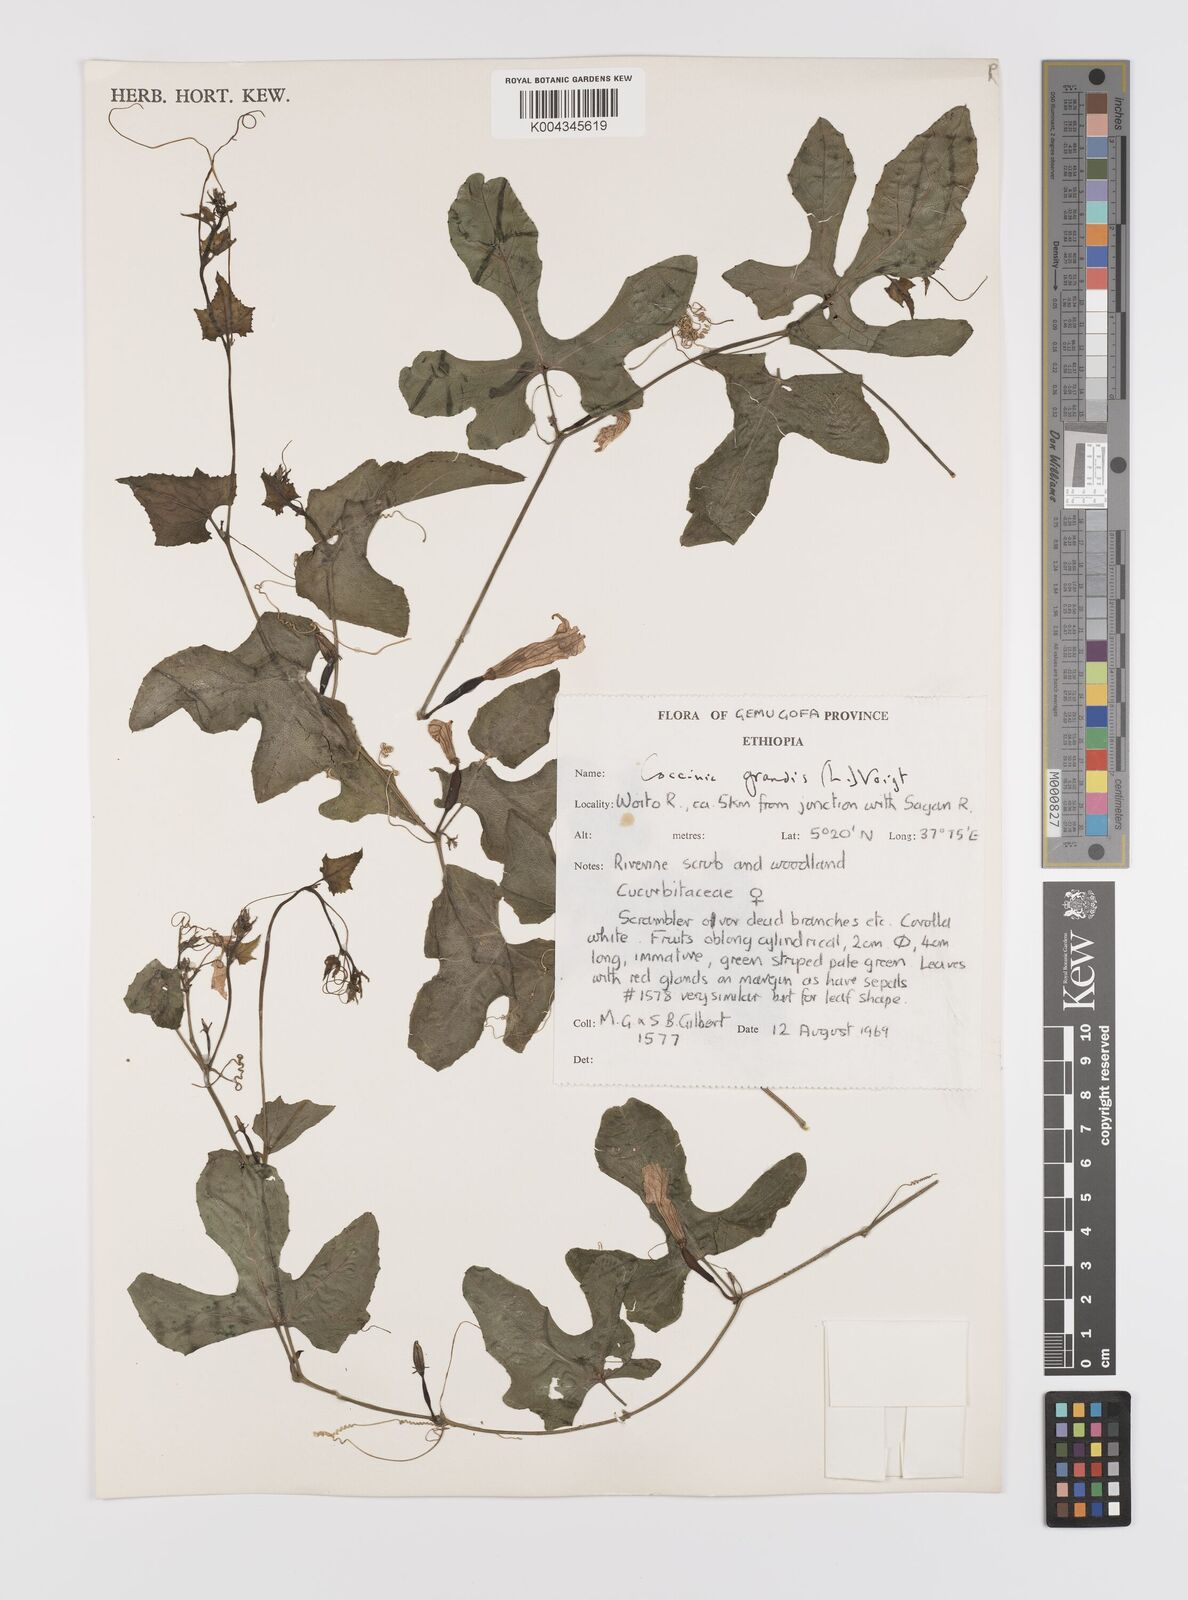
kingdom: Plantae
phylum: Tracheophyta
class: Magnoliopsida
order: Cucurbitales
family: Cucurbitaceae
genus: Coccinia
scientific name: Coccinia grandis
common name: Ivy gourd
